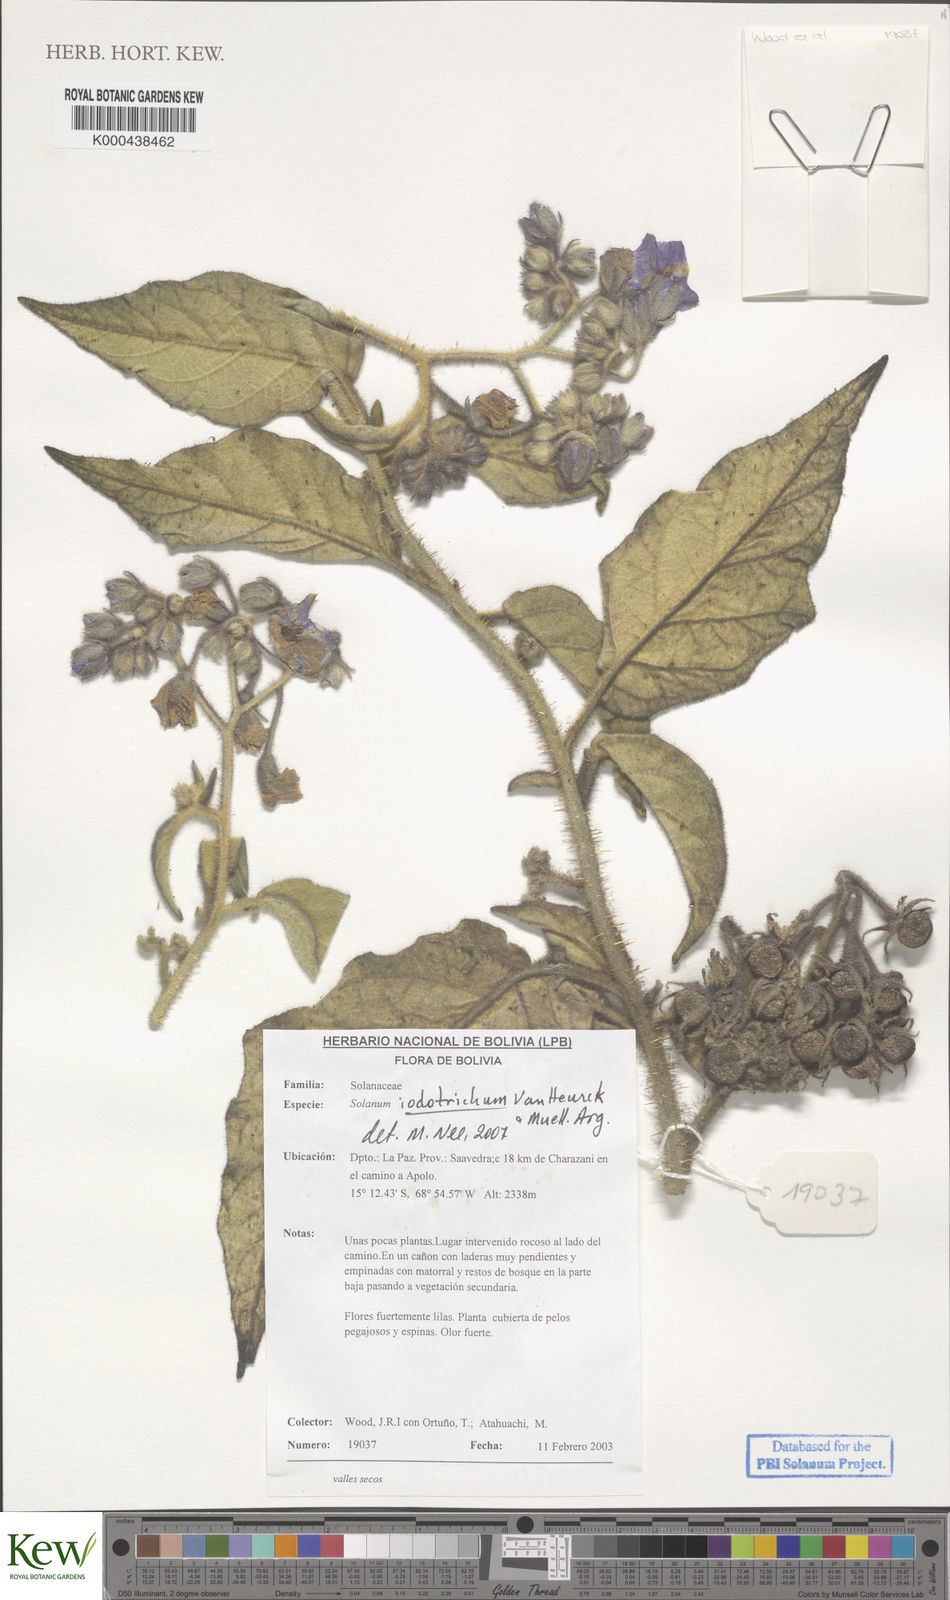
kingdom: Plantae
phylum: Tracheophyta
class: Magnoliopsida
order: Solanales
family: Solanaceae
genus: Solanum
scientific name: Solanum iodotrichum
